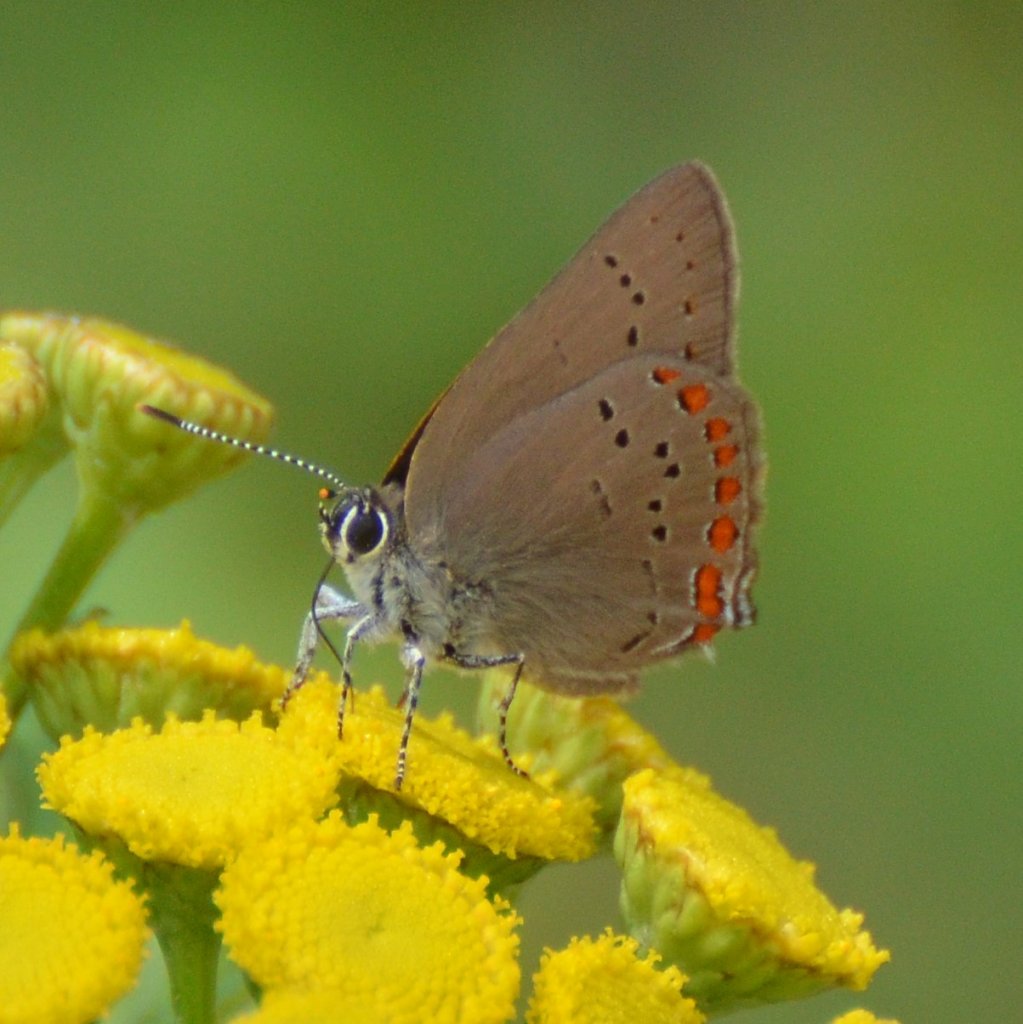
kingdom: Animalia
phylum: Arthropoda
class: Insecta
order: Lepidoptera
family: Lycaenidae
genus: Harkenclenus
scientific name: Harkenclenus titus
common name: Coral Hairstreak
